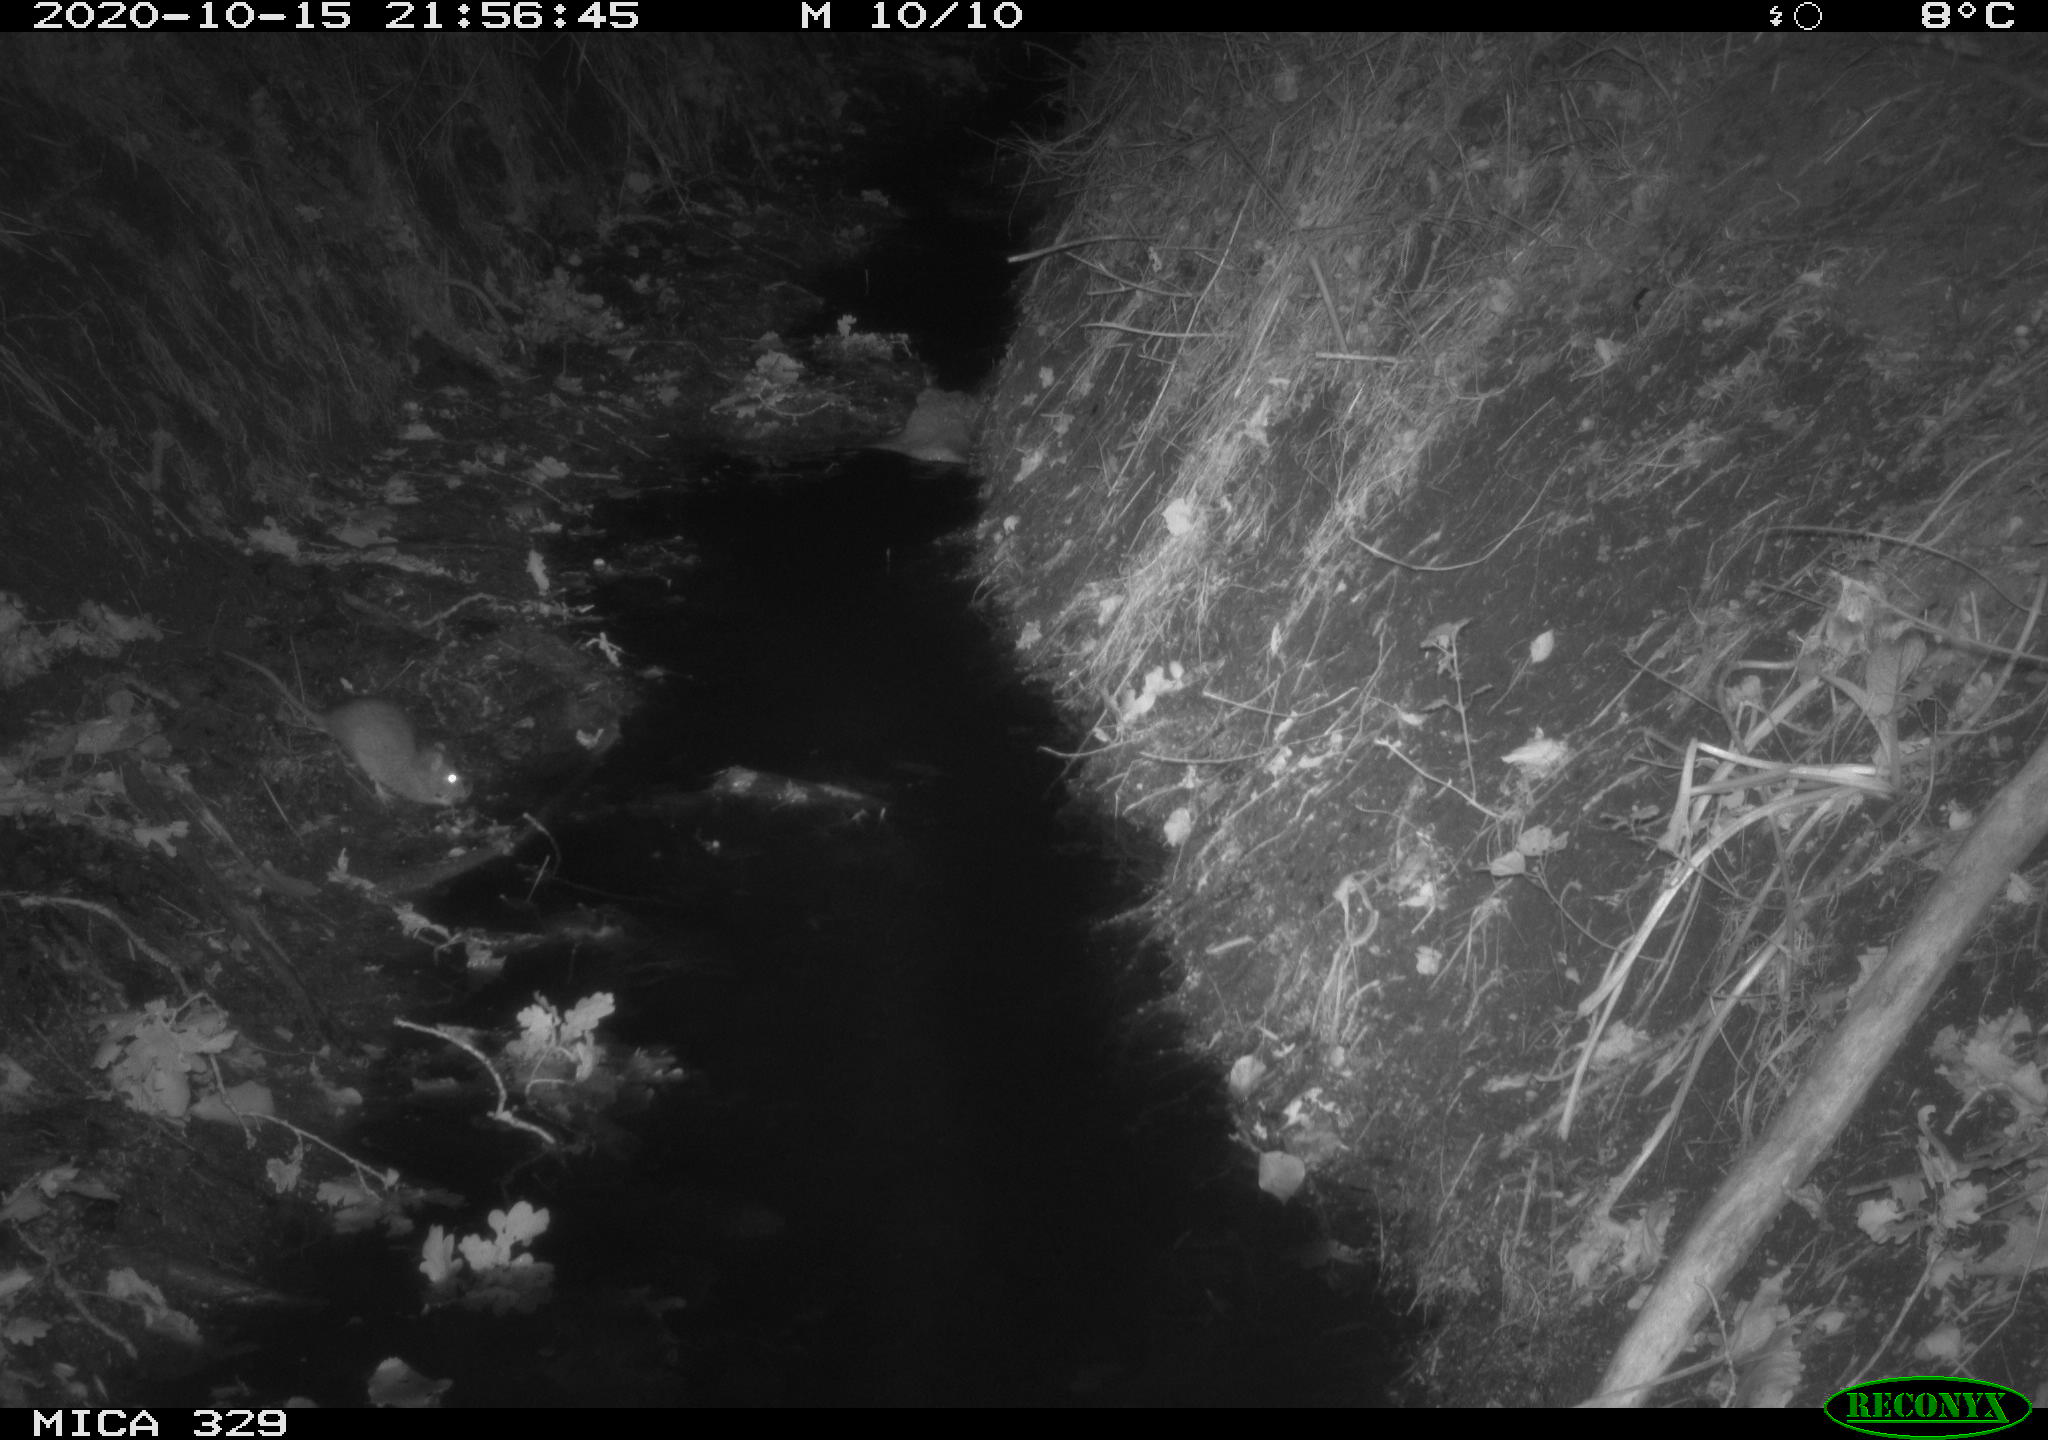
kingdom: Animalia
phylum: Chordata
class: Mammalia
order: Rodentia
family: Muridae
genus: Rattus
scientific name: Rattus norvegicus
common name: Brown rat
